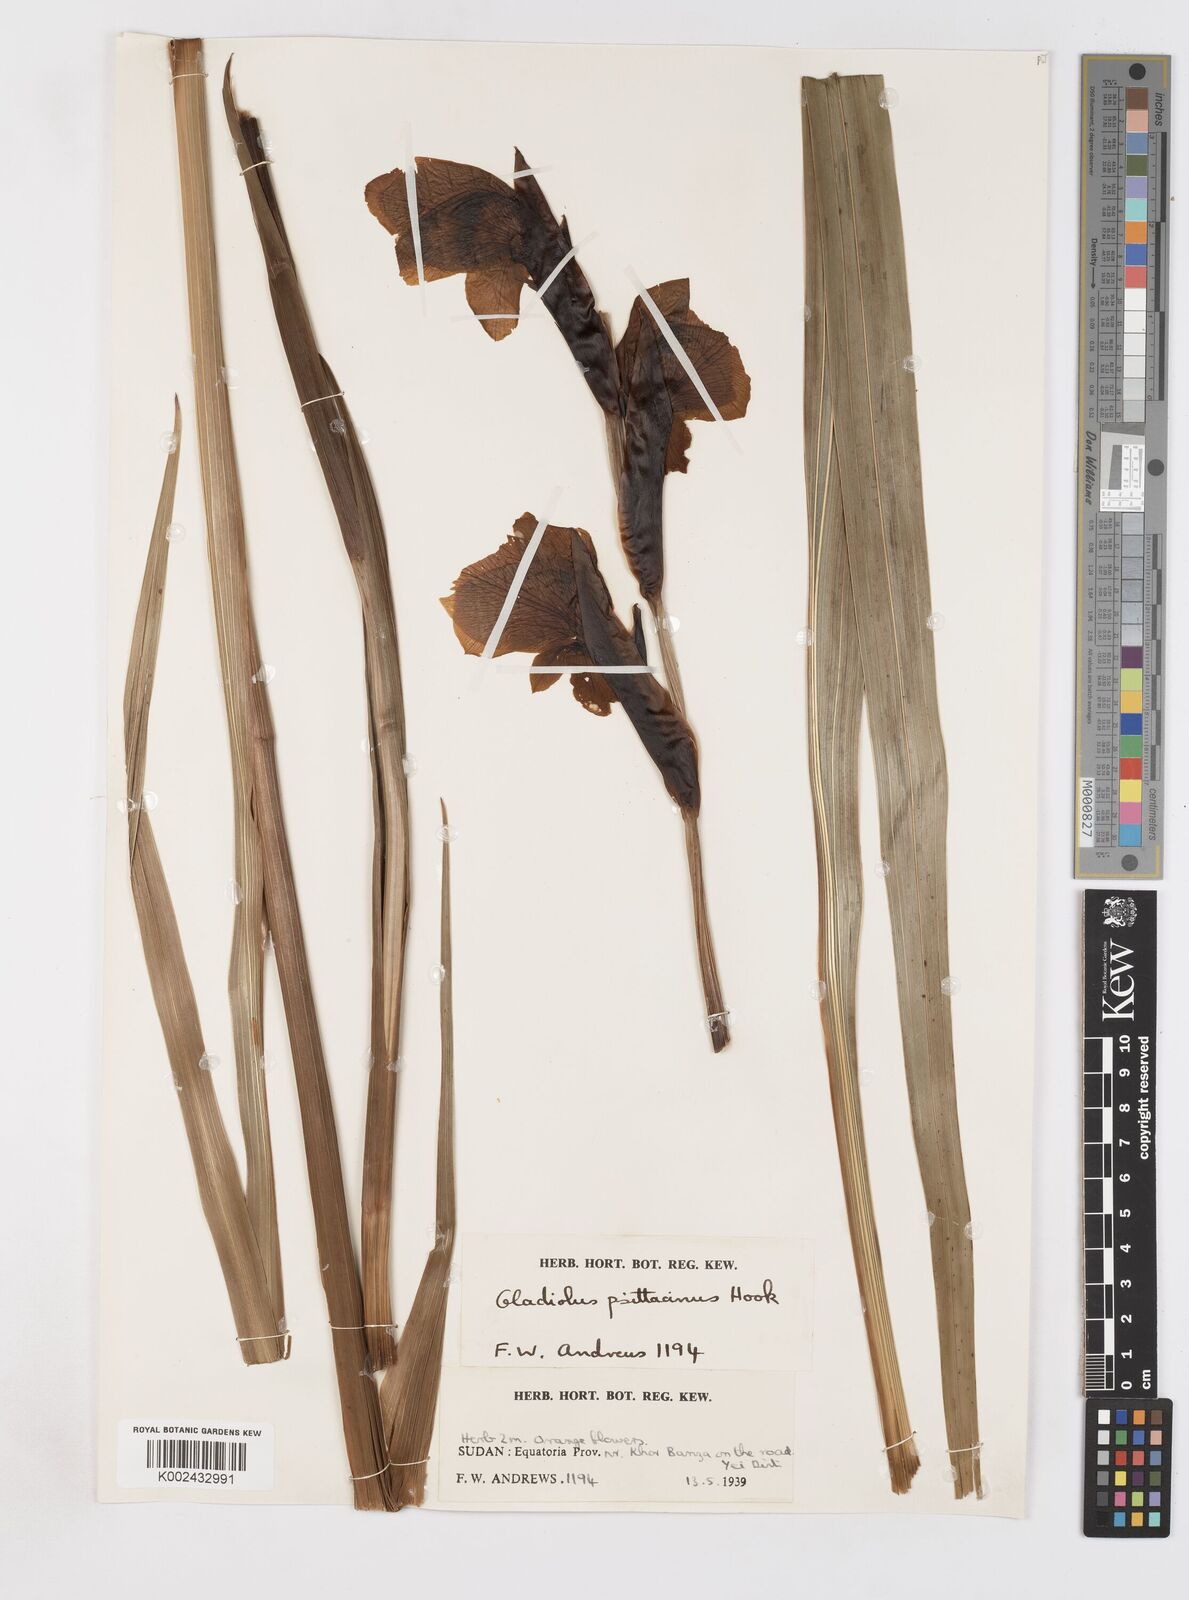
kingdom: Plantae
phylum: Tracheophyta
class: Liliopsida
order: Asparagales
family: Iridaceae
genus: Gladiolus
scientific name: Gladiolus dalenii
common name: Cornflag
